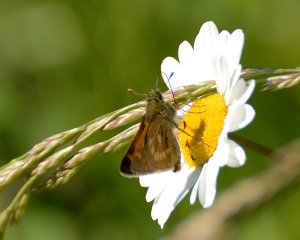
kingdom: Animalia
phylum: Arthropoda
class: Insecta
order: Lepidoptera
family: Hesperiidae
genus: Polites
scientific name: Polites
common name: Long Dash Skipper
